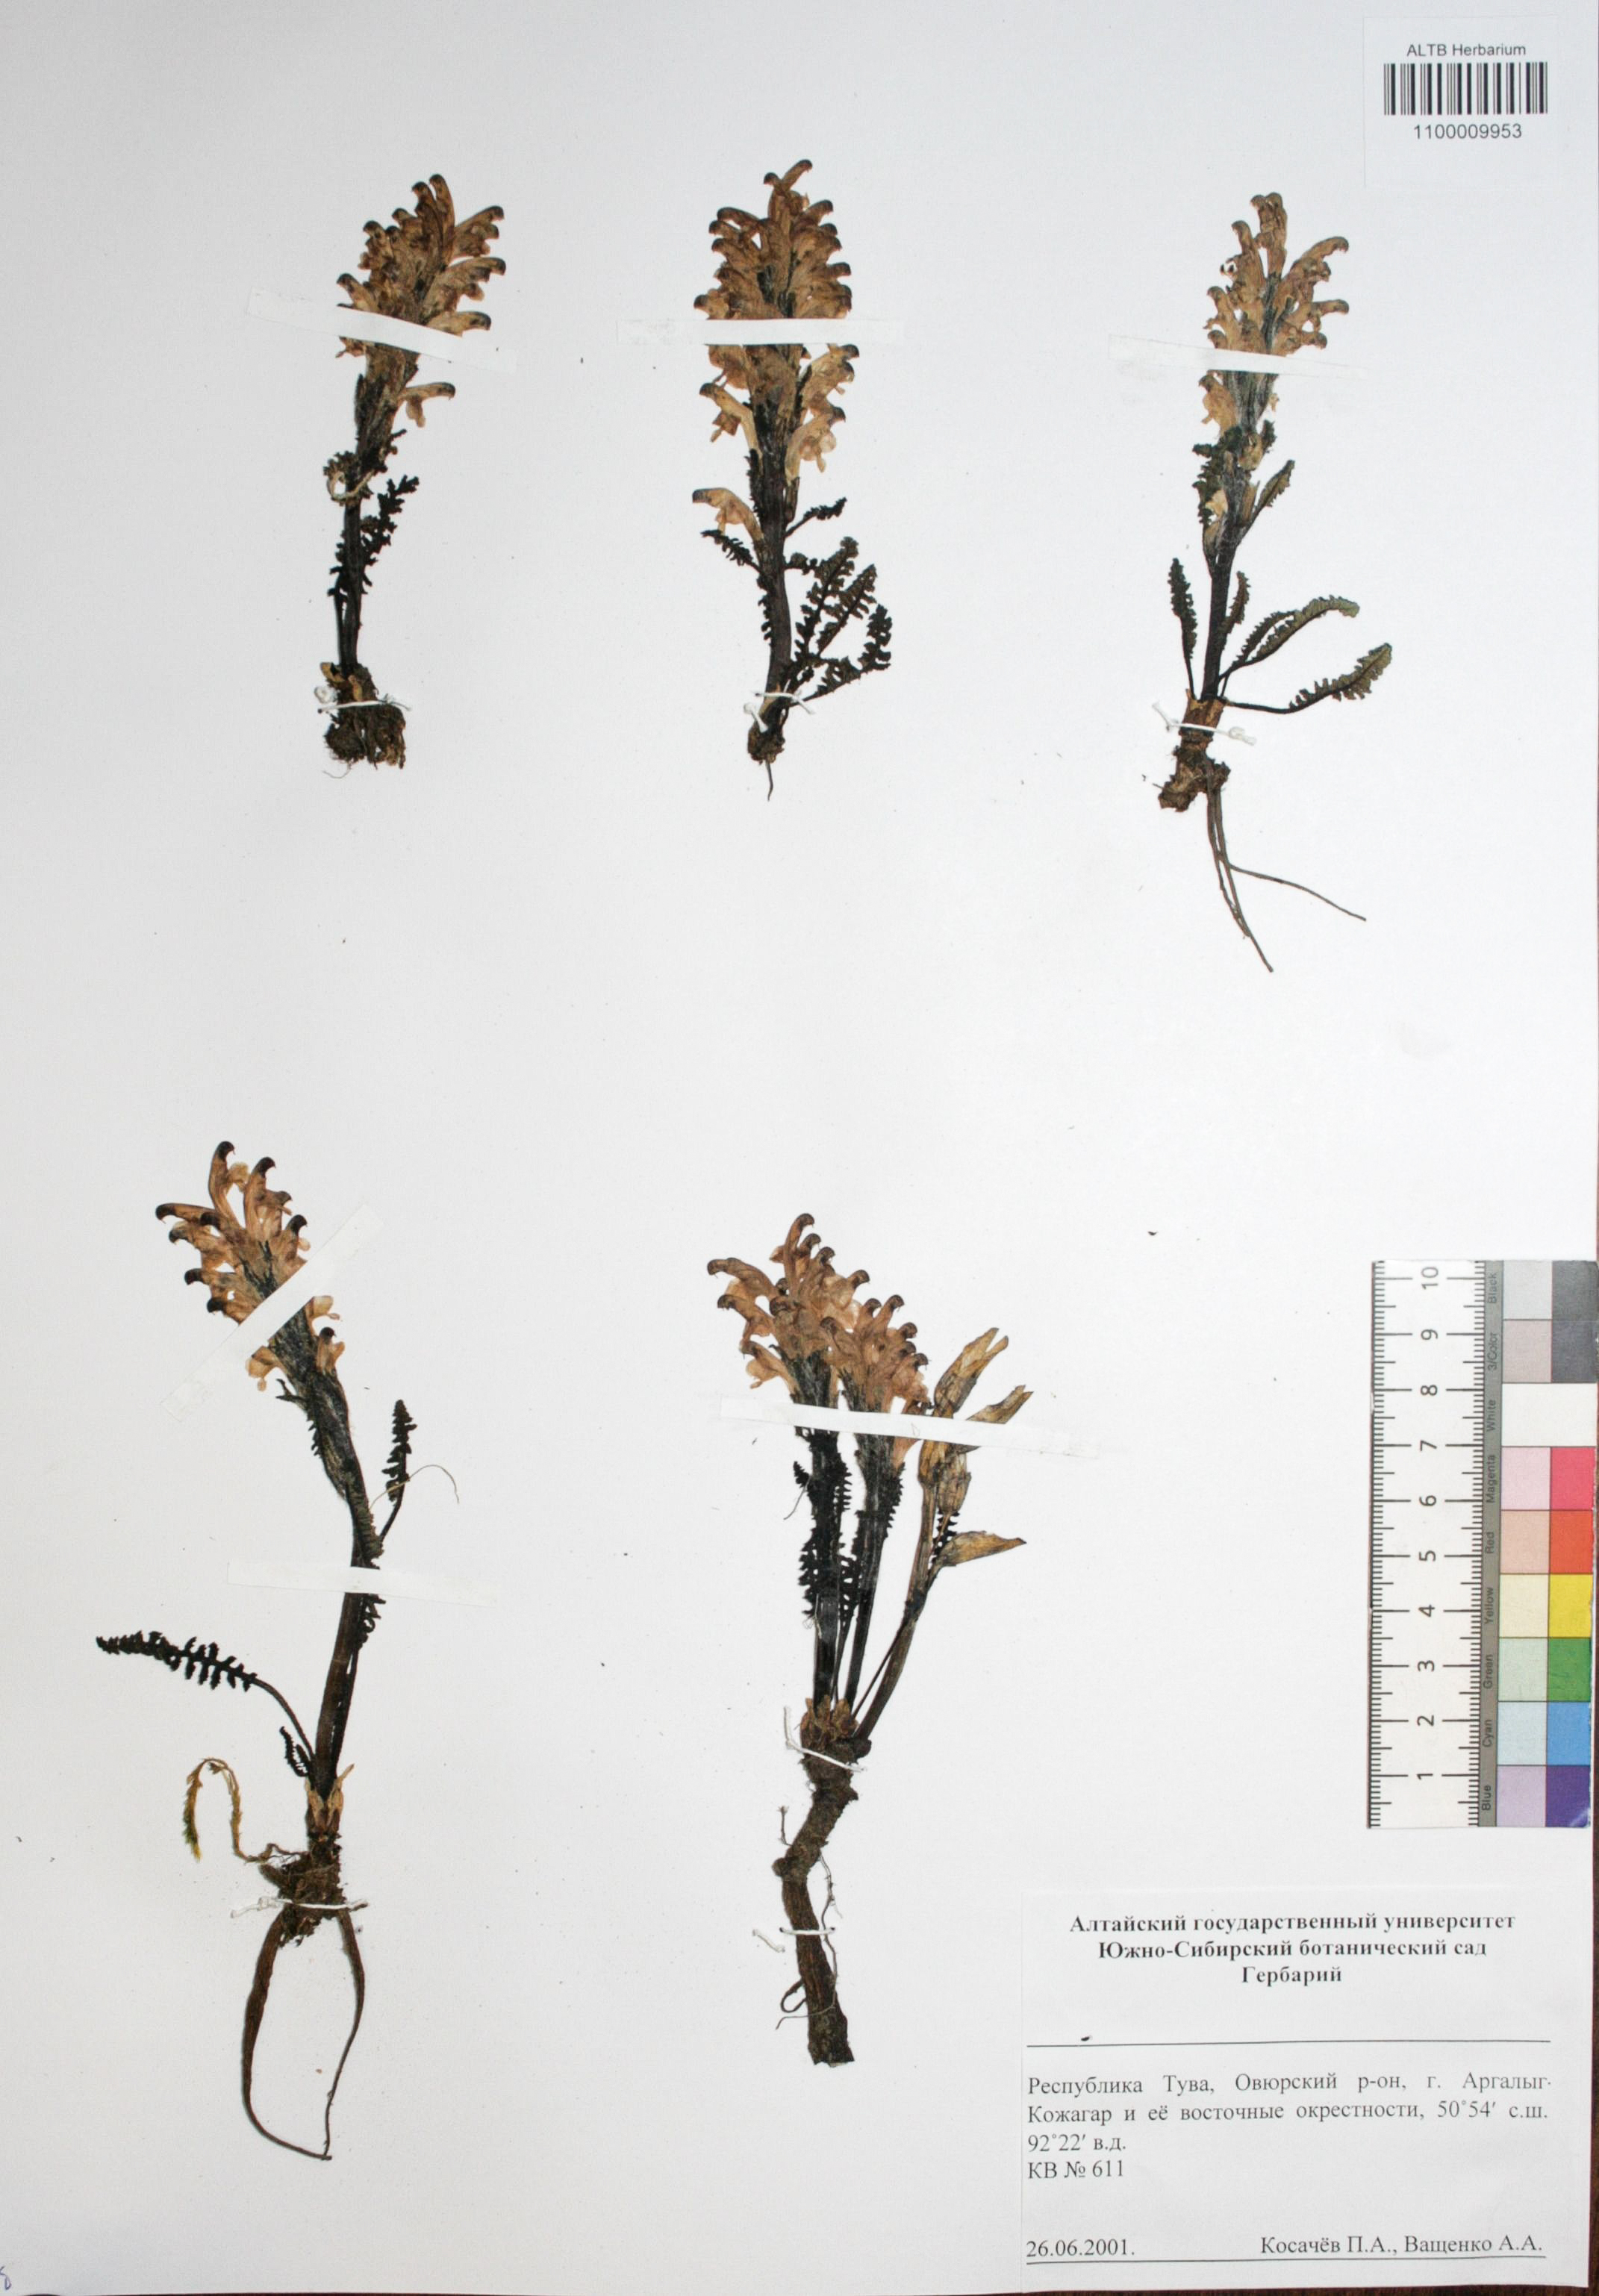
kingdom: Plantae
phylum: Tracheophyta
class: Magnoliopsida
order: Caryophyllales
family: Caryophyllaceae
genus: Silene
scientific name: Silene graminifolia
